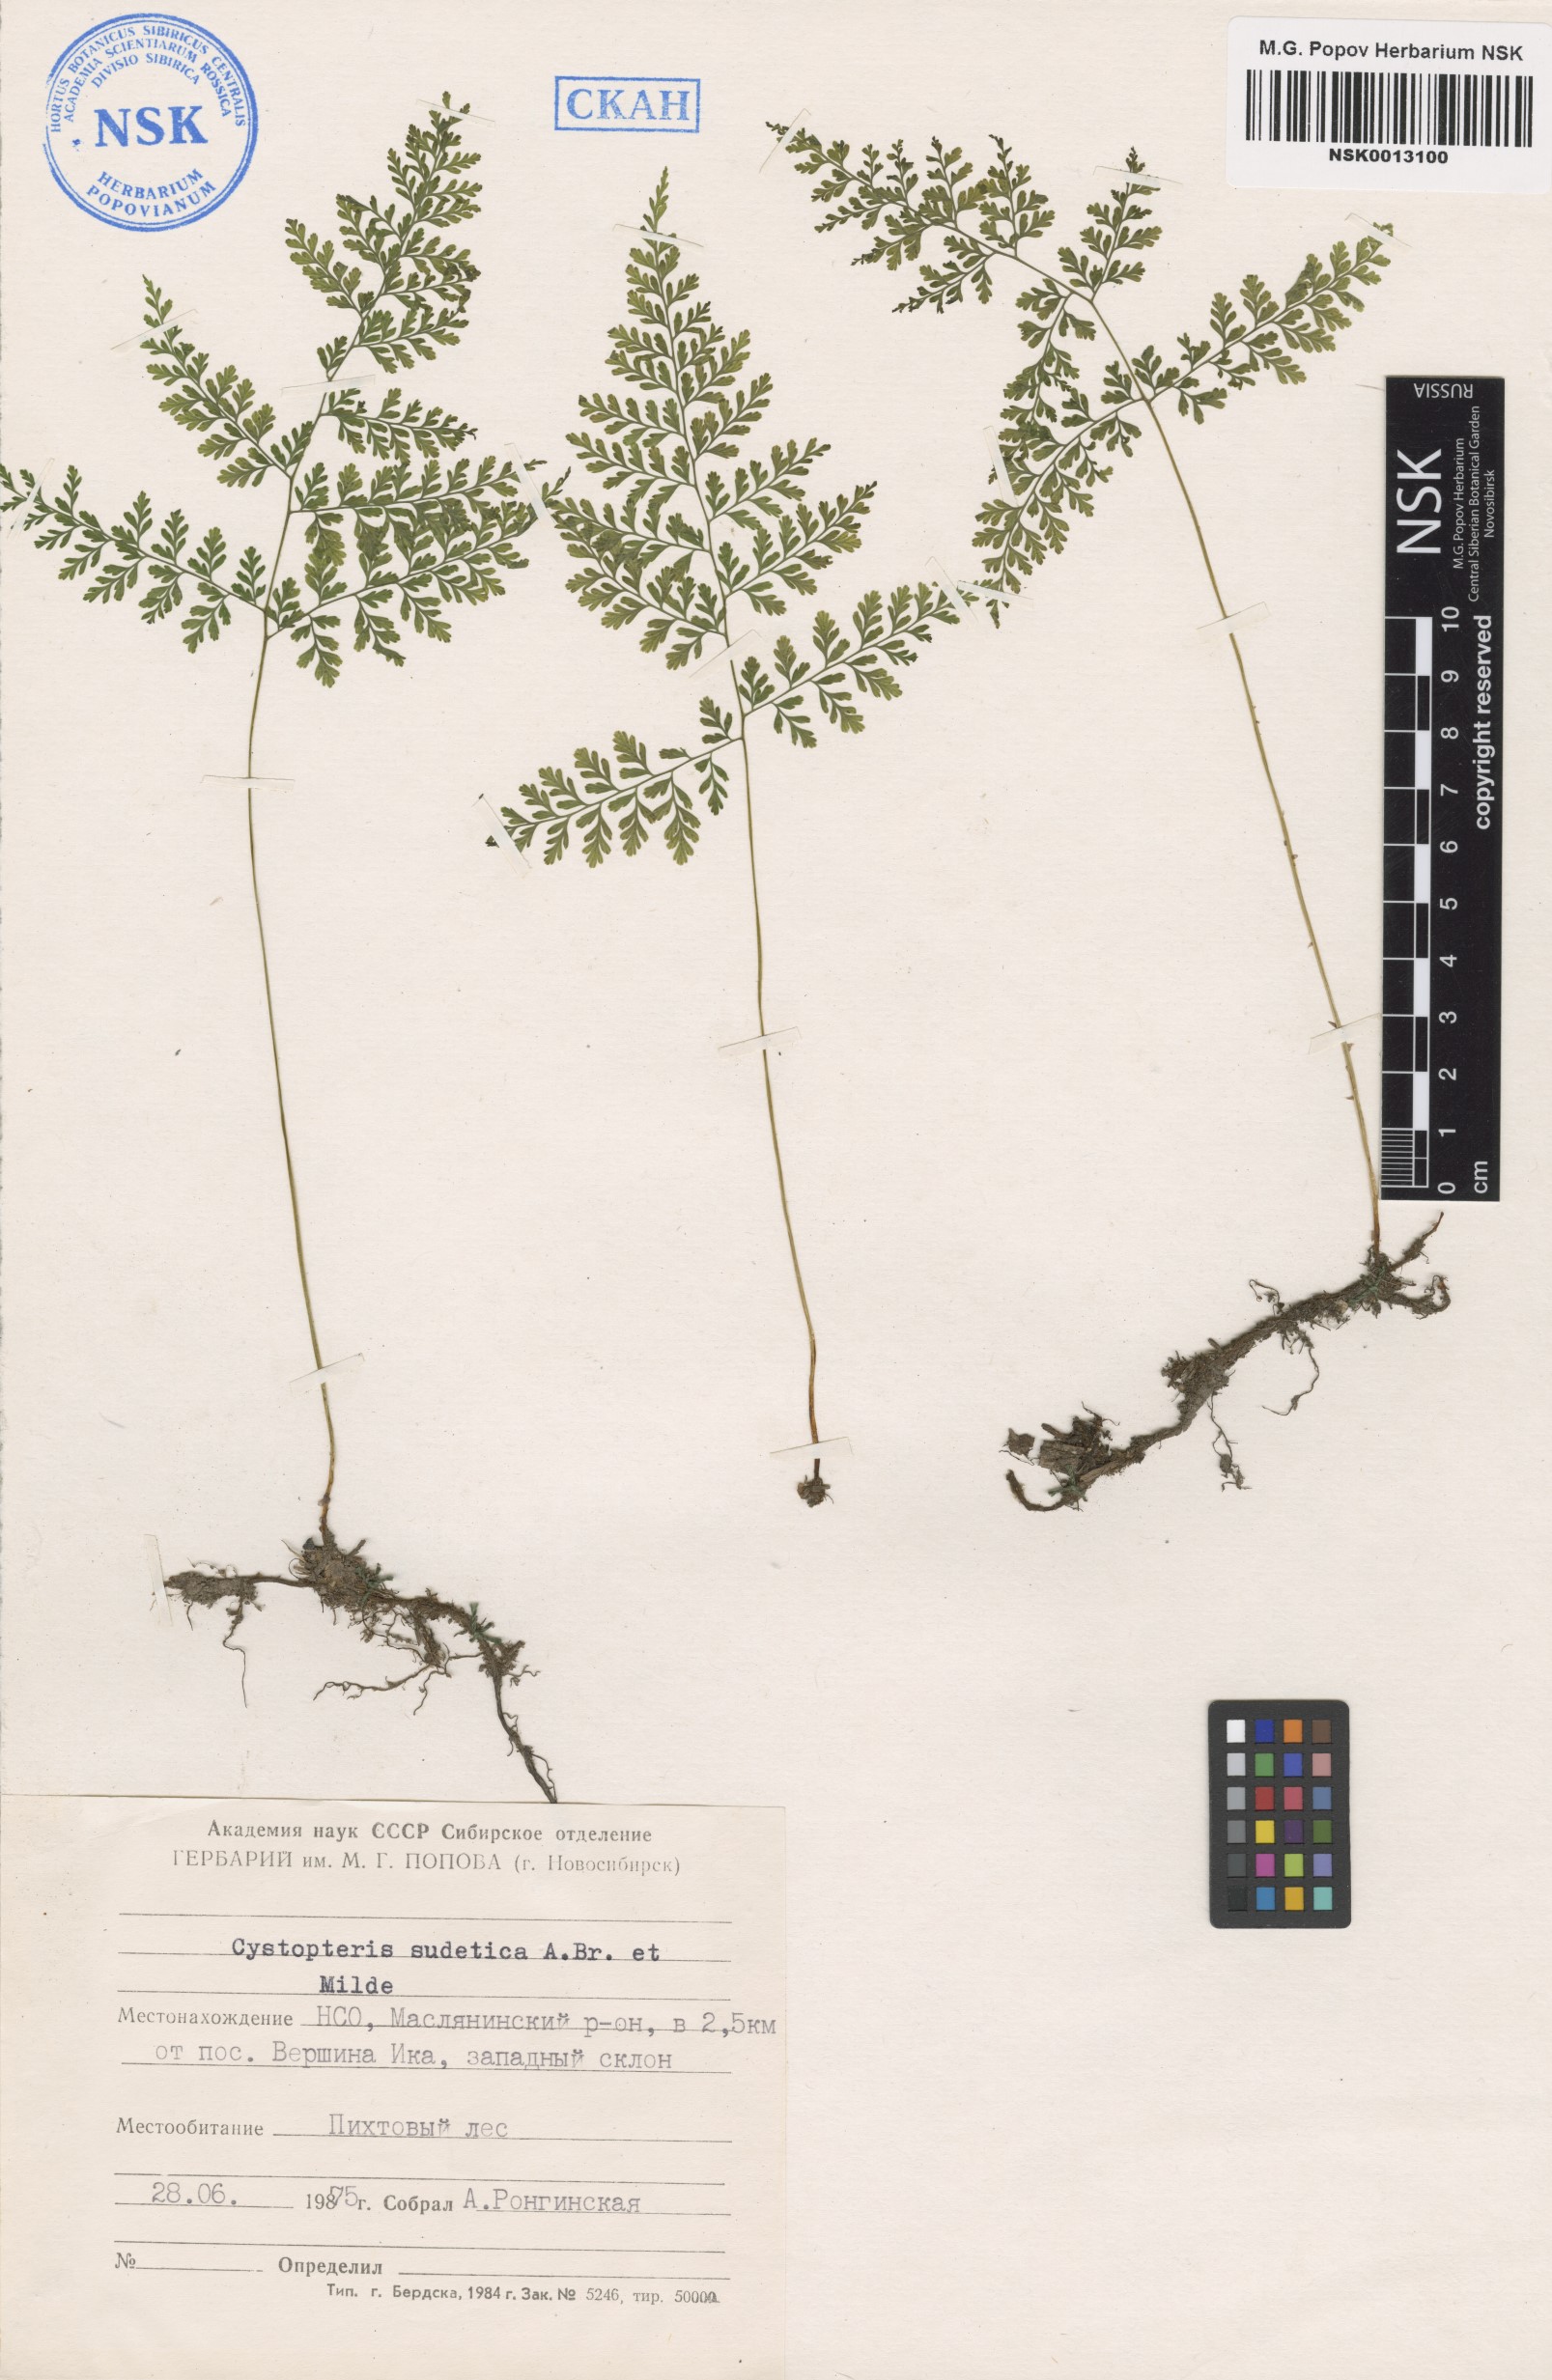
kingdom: Plantae
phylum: Tracheophyta
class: Polypodiopsida
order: Polypodiales
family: Cystopteridaceae
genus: Cystopteris
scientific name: Cystopteris sudetica
